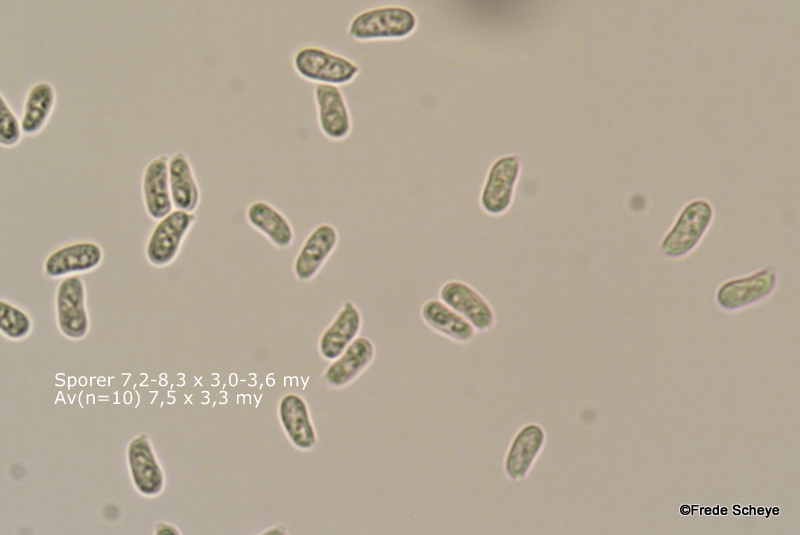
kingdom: Fungi
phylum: Basidiomycota
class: Agaricomycetes
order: Russulales
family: Stereaceae
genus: Stereum
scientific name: Stereum rugosum
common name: rynket lædersvamp
